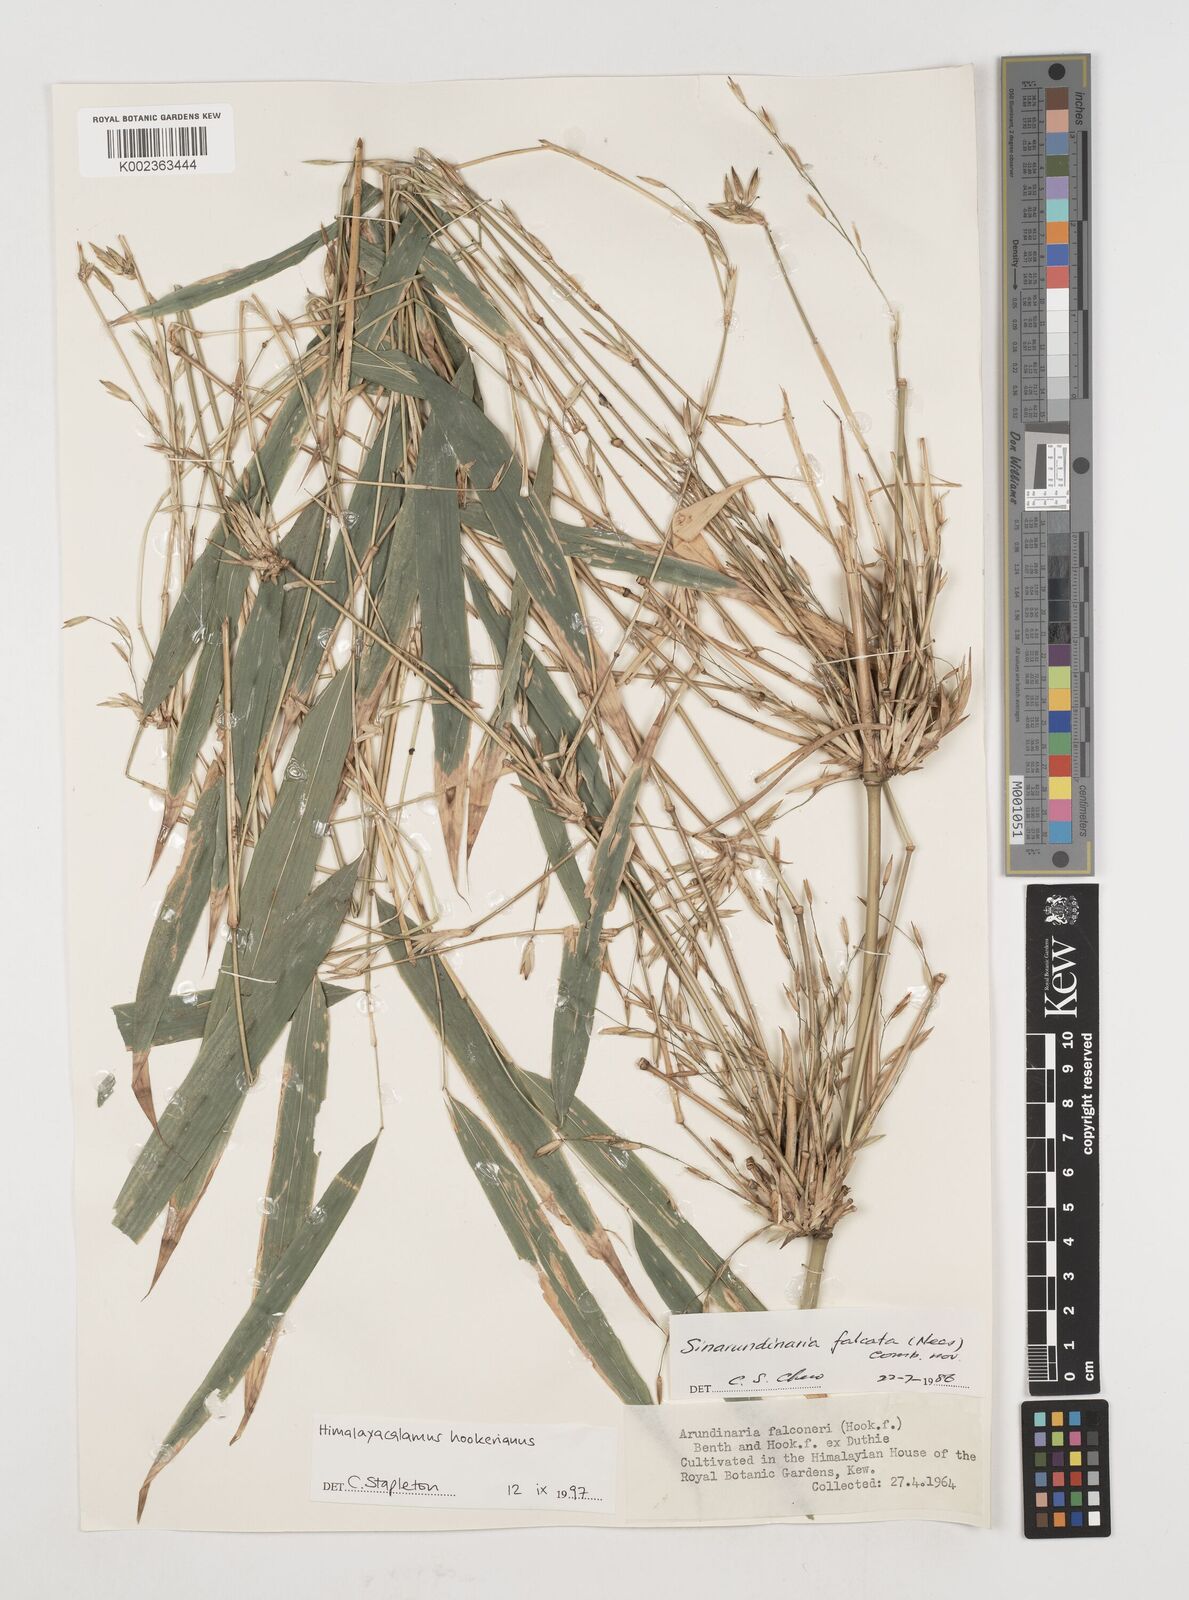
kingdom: Plantae
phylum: Tracheophyta
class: Liliopsida
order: Poales
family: Poaceae
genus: Himalayacalamus
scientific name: Himalayacalamus hookerianus
